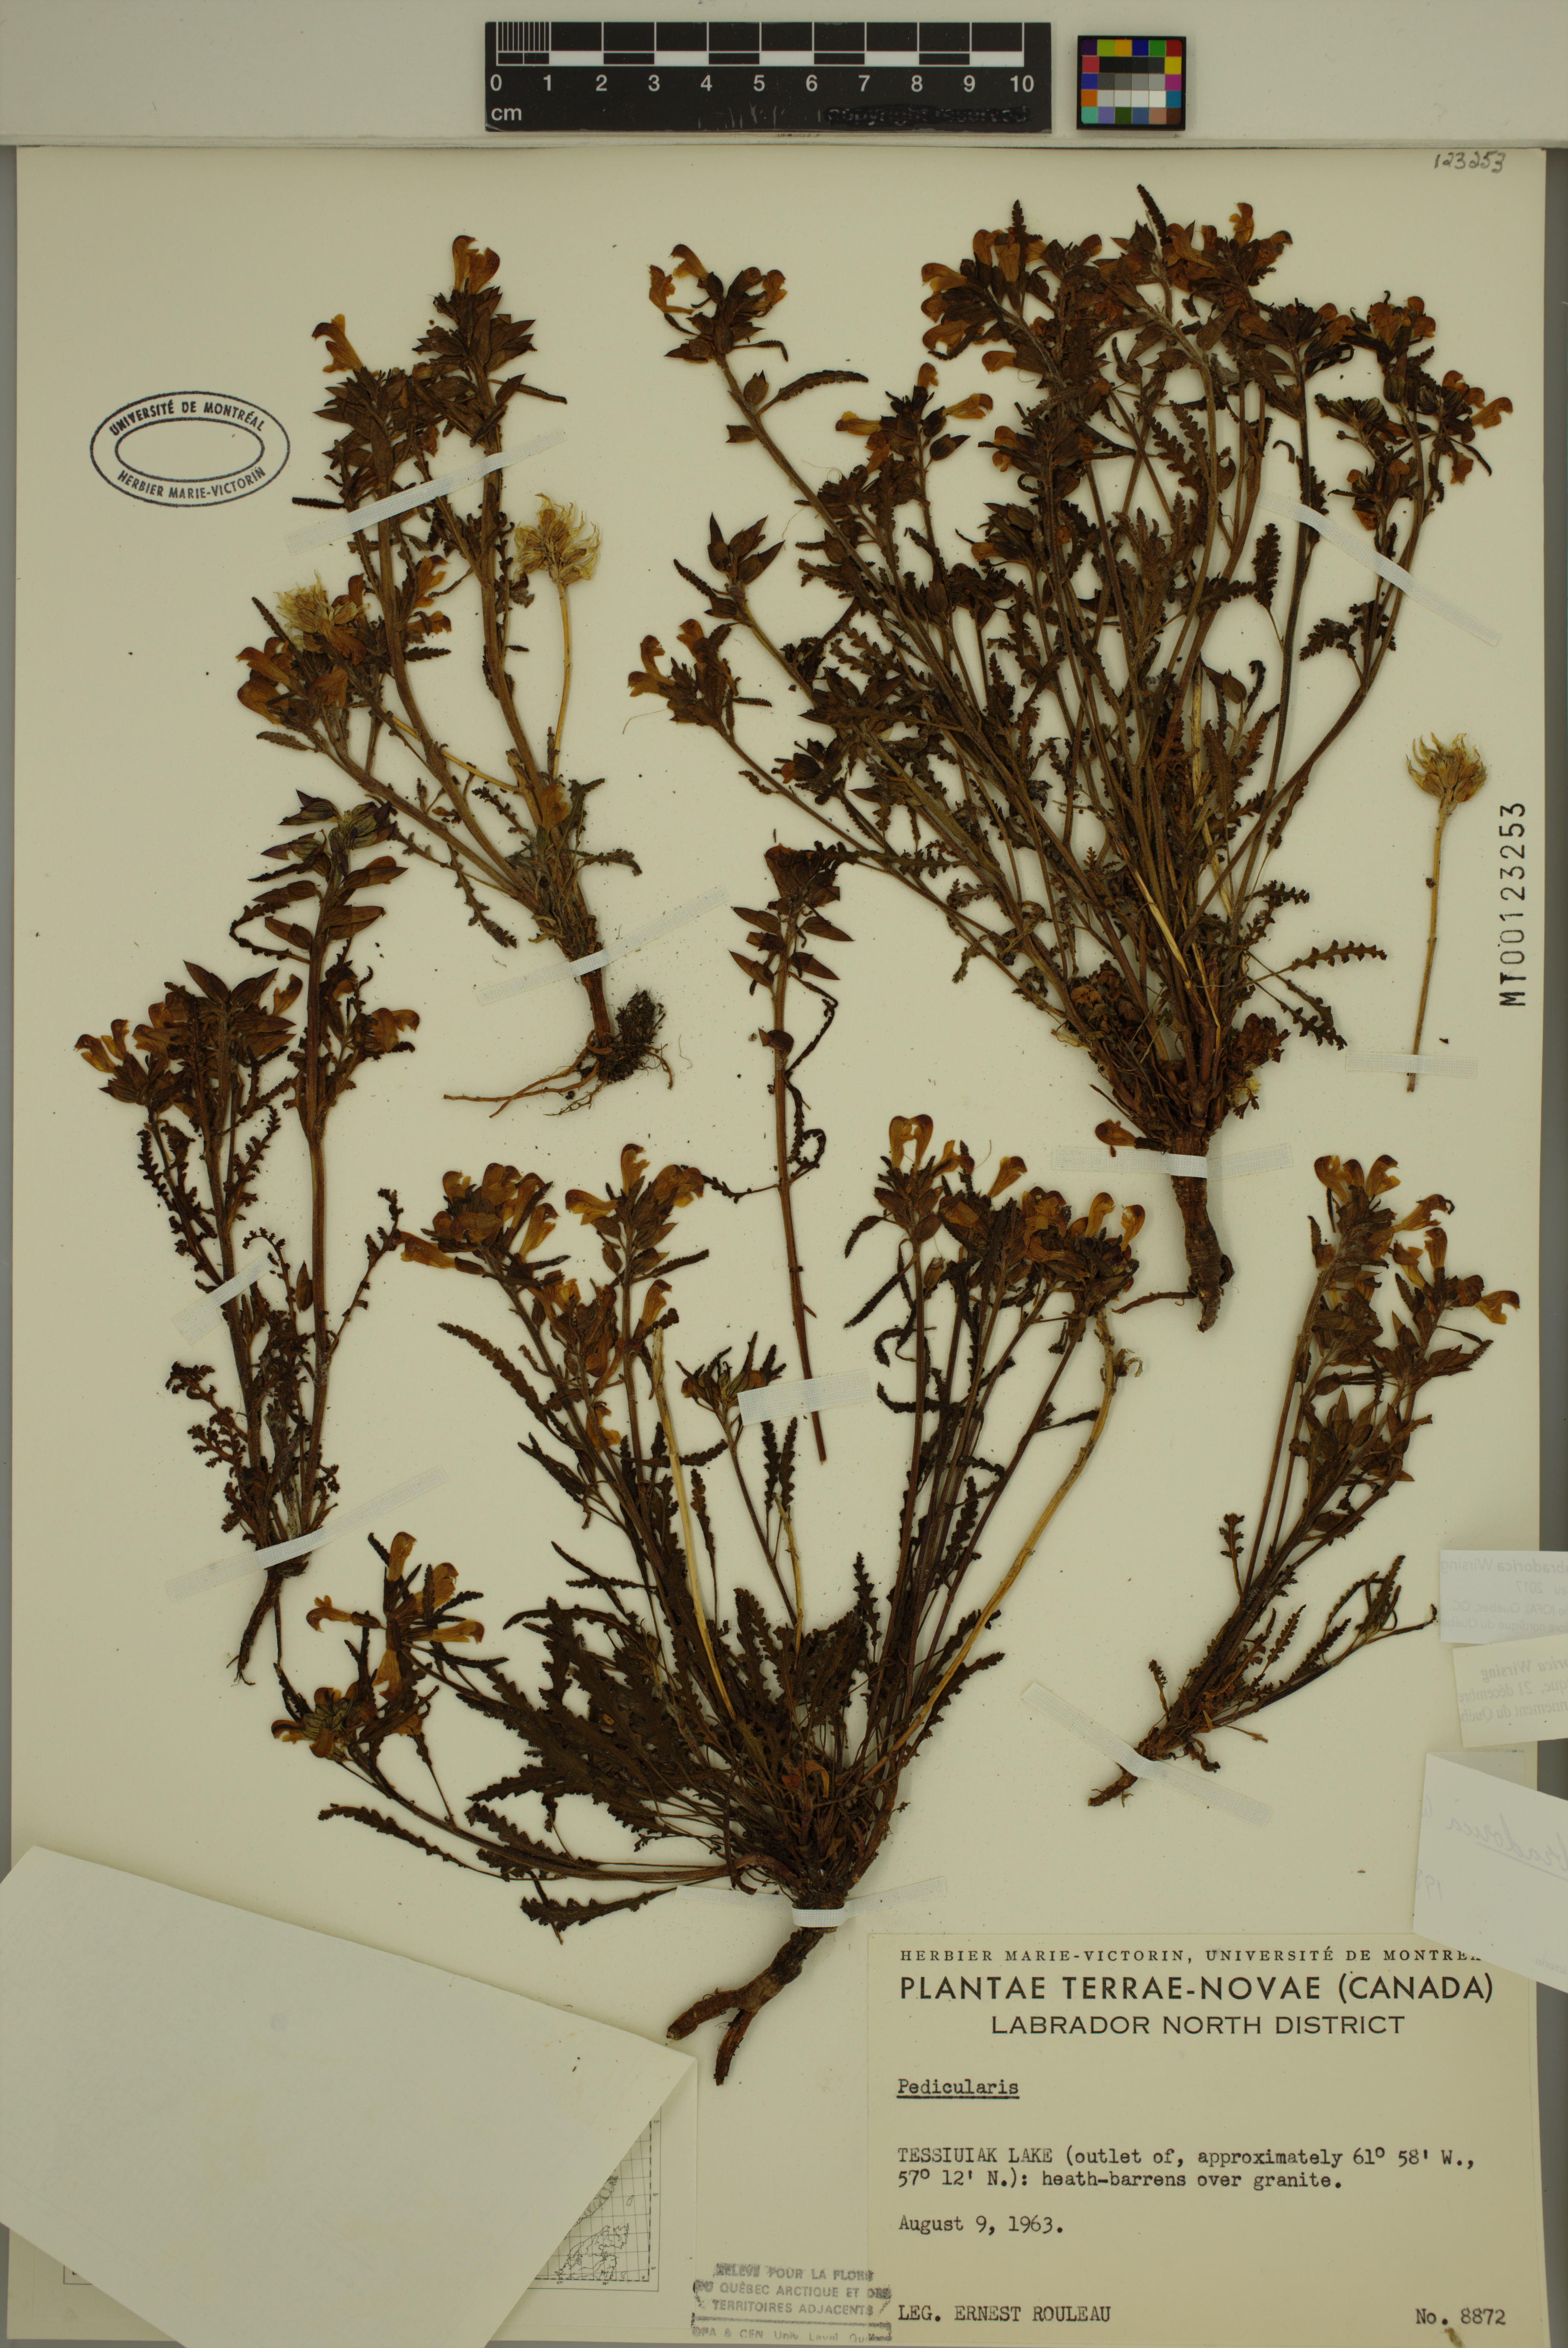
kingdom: Plantae
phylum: Tracheophyta
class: Magnoliopsida
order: Lamiales
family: Orobanchaceae
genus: Pedicularis
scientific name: Pedicularis labradorica
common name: Labrador lousewort
